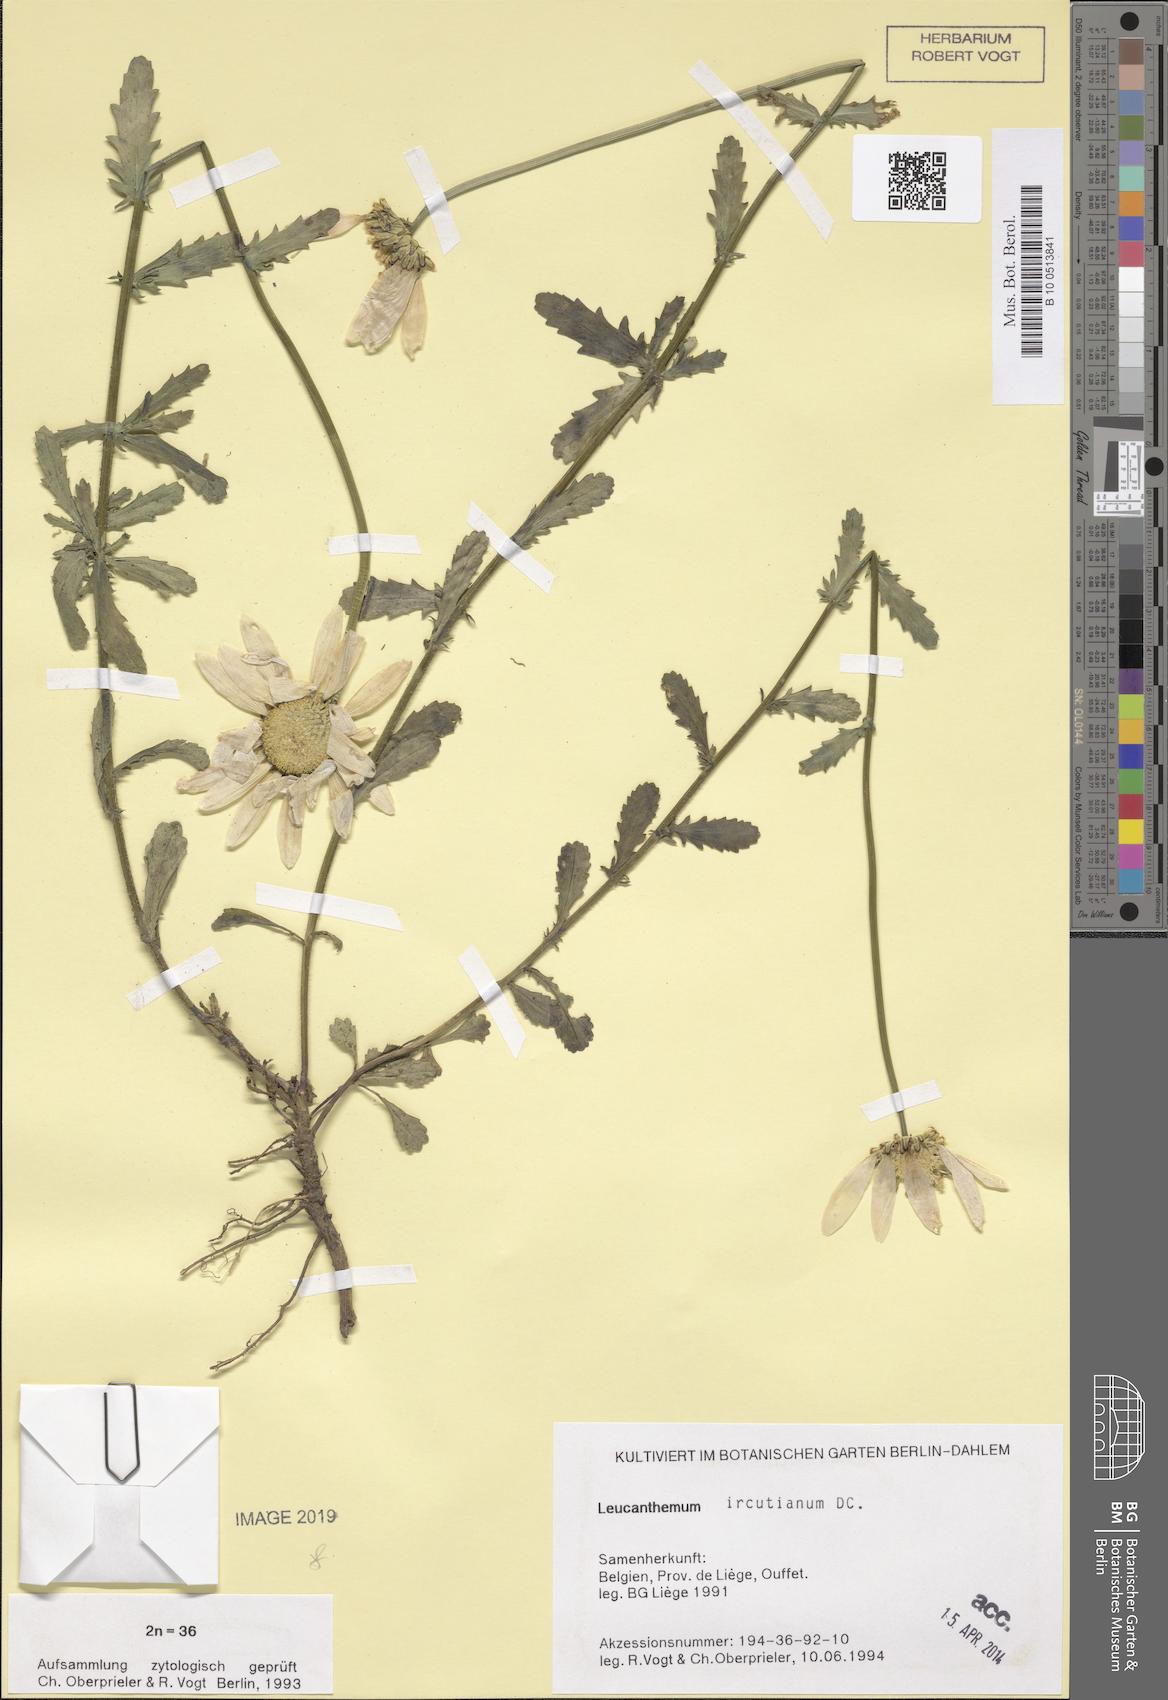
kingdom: Plantae
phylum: Tracheophyta
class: Magnoliopsida
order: Asterales
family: Asteraceae
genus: Leucanthemum
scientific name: Leucanthemum ircutianum
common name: Daisy
